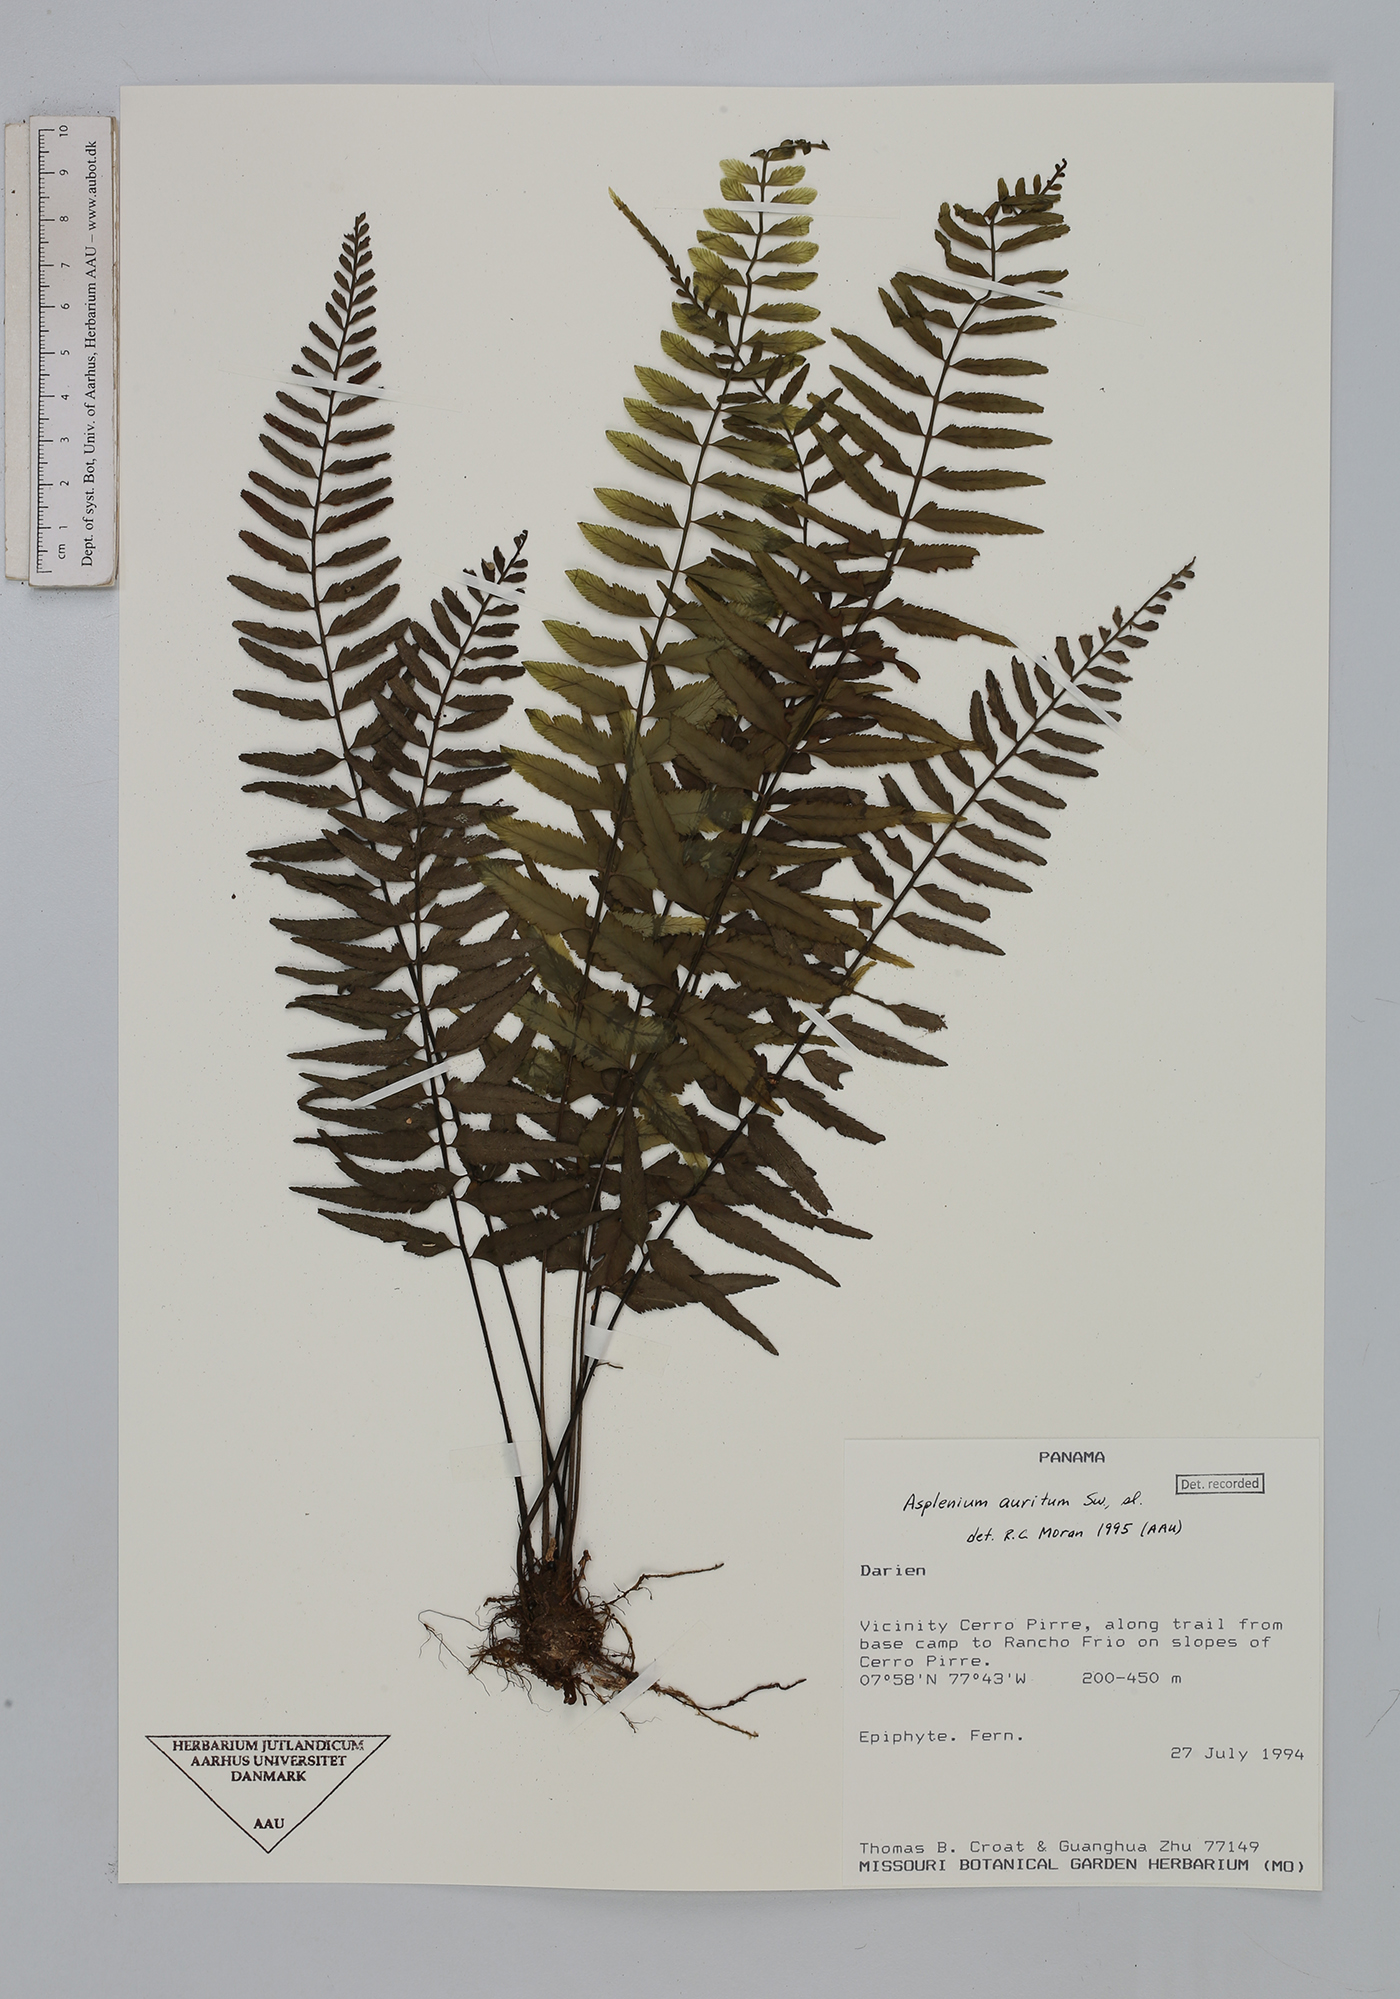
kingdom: Plantae
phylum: Tracheophyta
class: Polypodiopsida
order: Polypodiales
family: Aspleniaceae
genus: Asplenium
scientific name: Asplenium auritum
